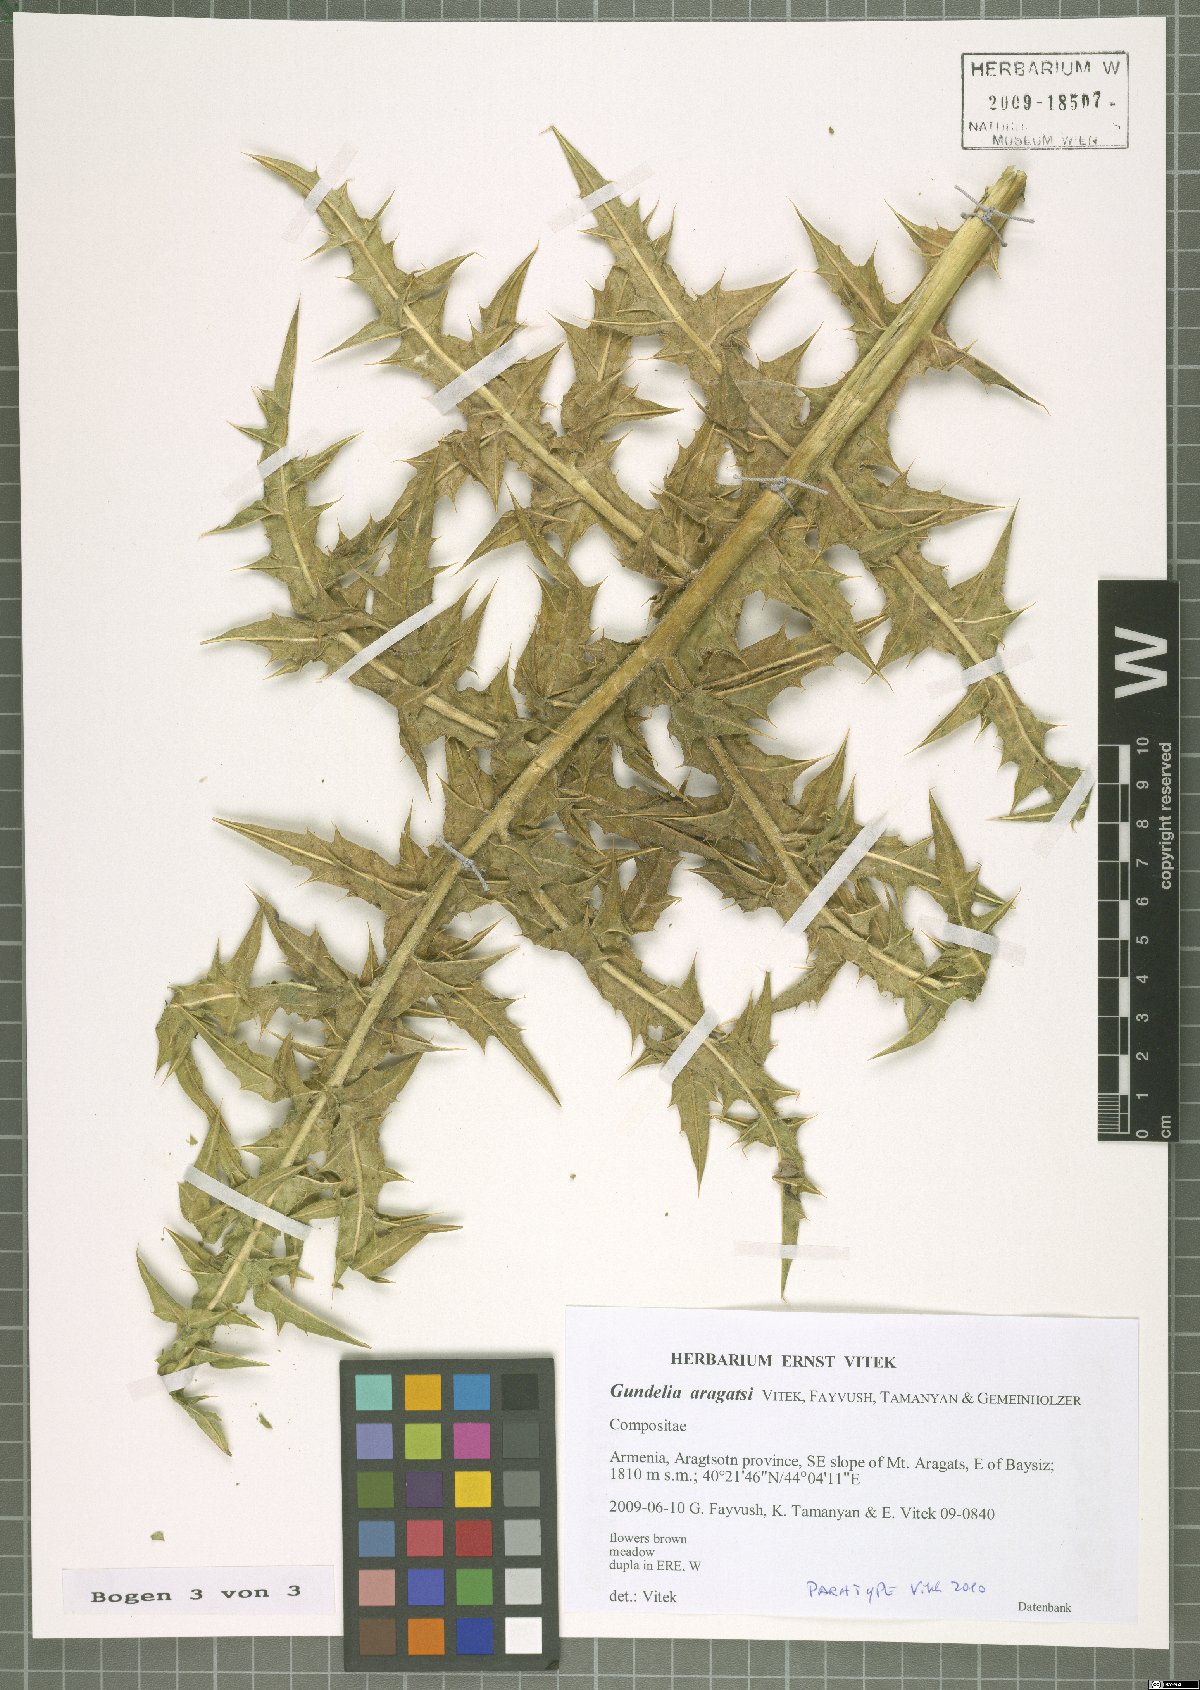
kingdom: Plantae
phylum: Tracheophyta
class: Magnoliopsida
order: Asterales
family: Asteraceae
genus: Gundelia
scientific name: Gundelia aragatsi
